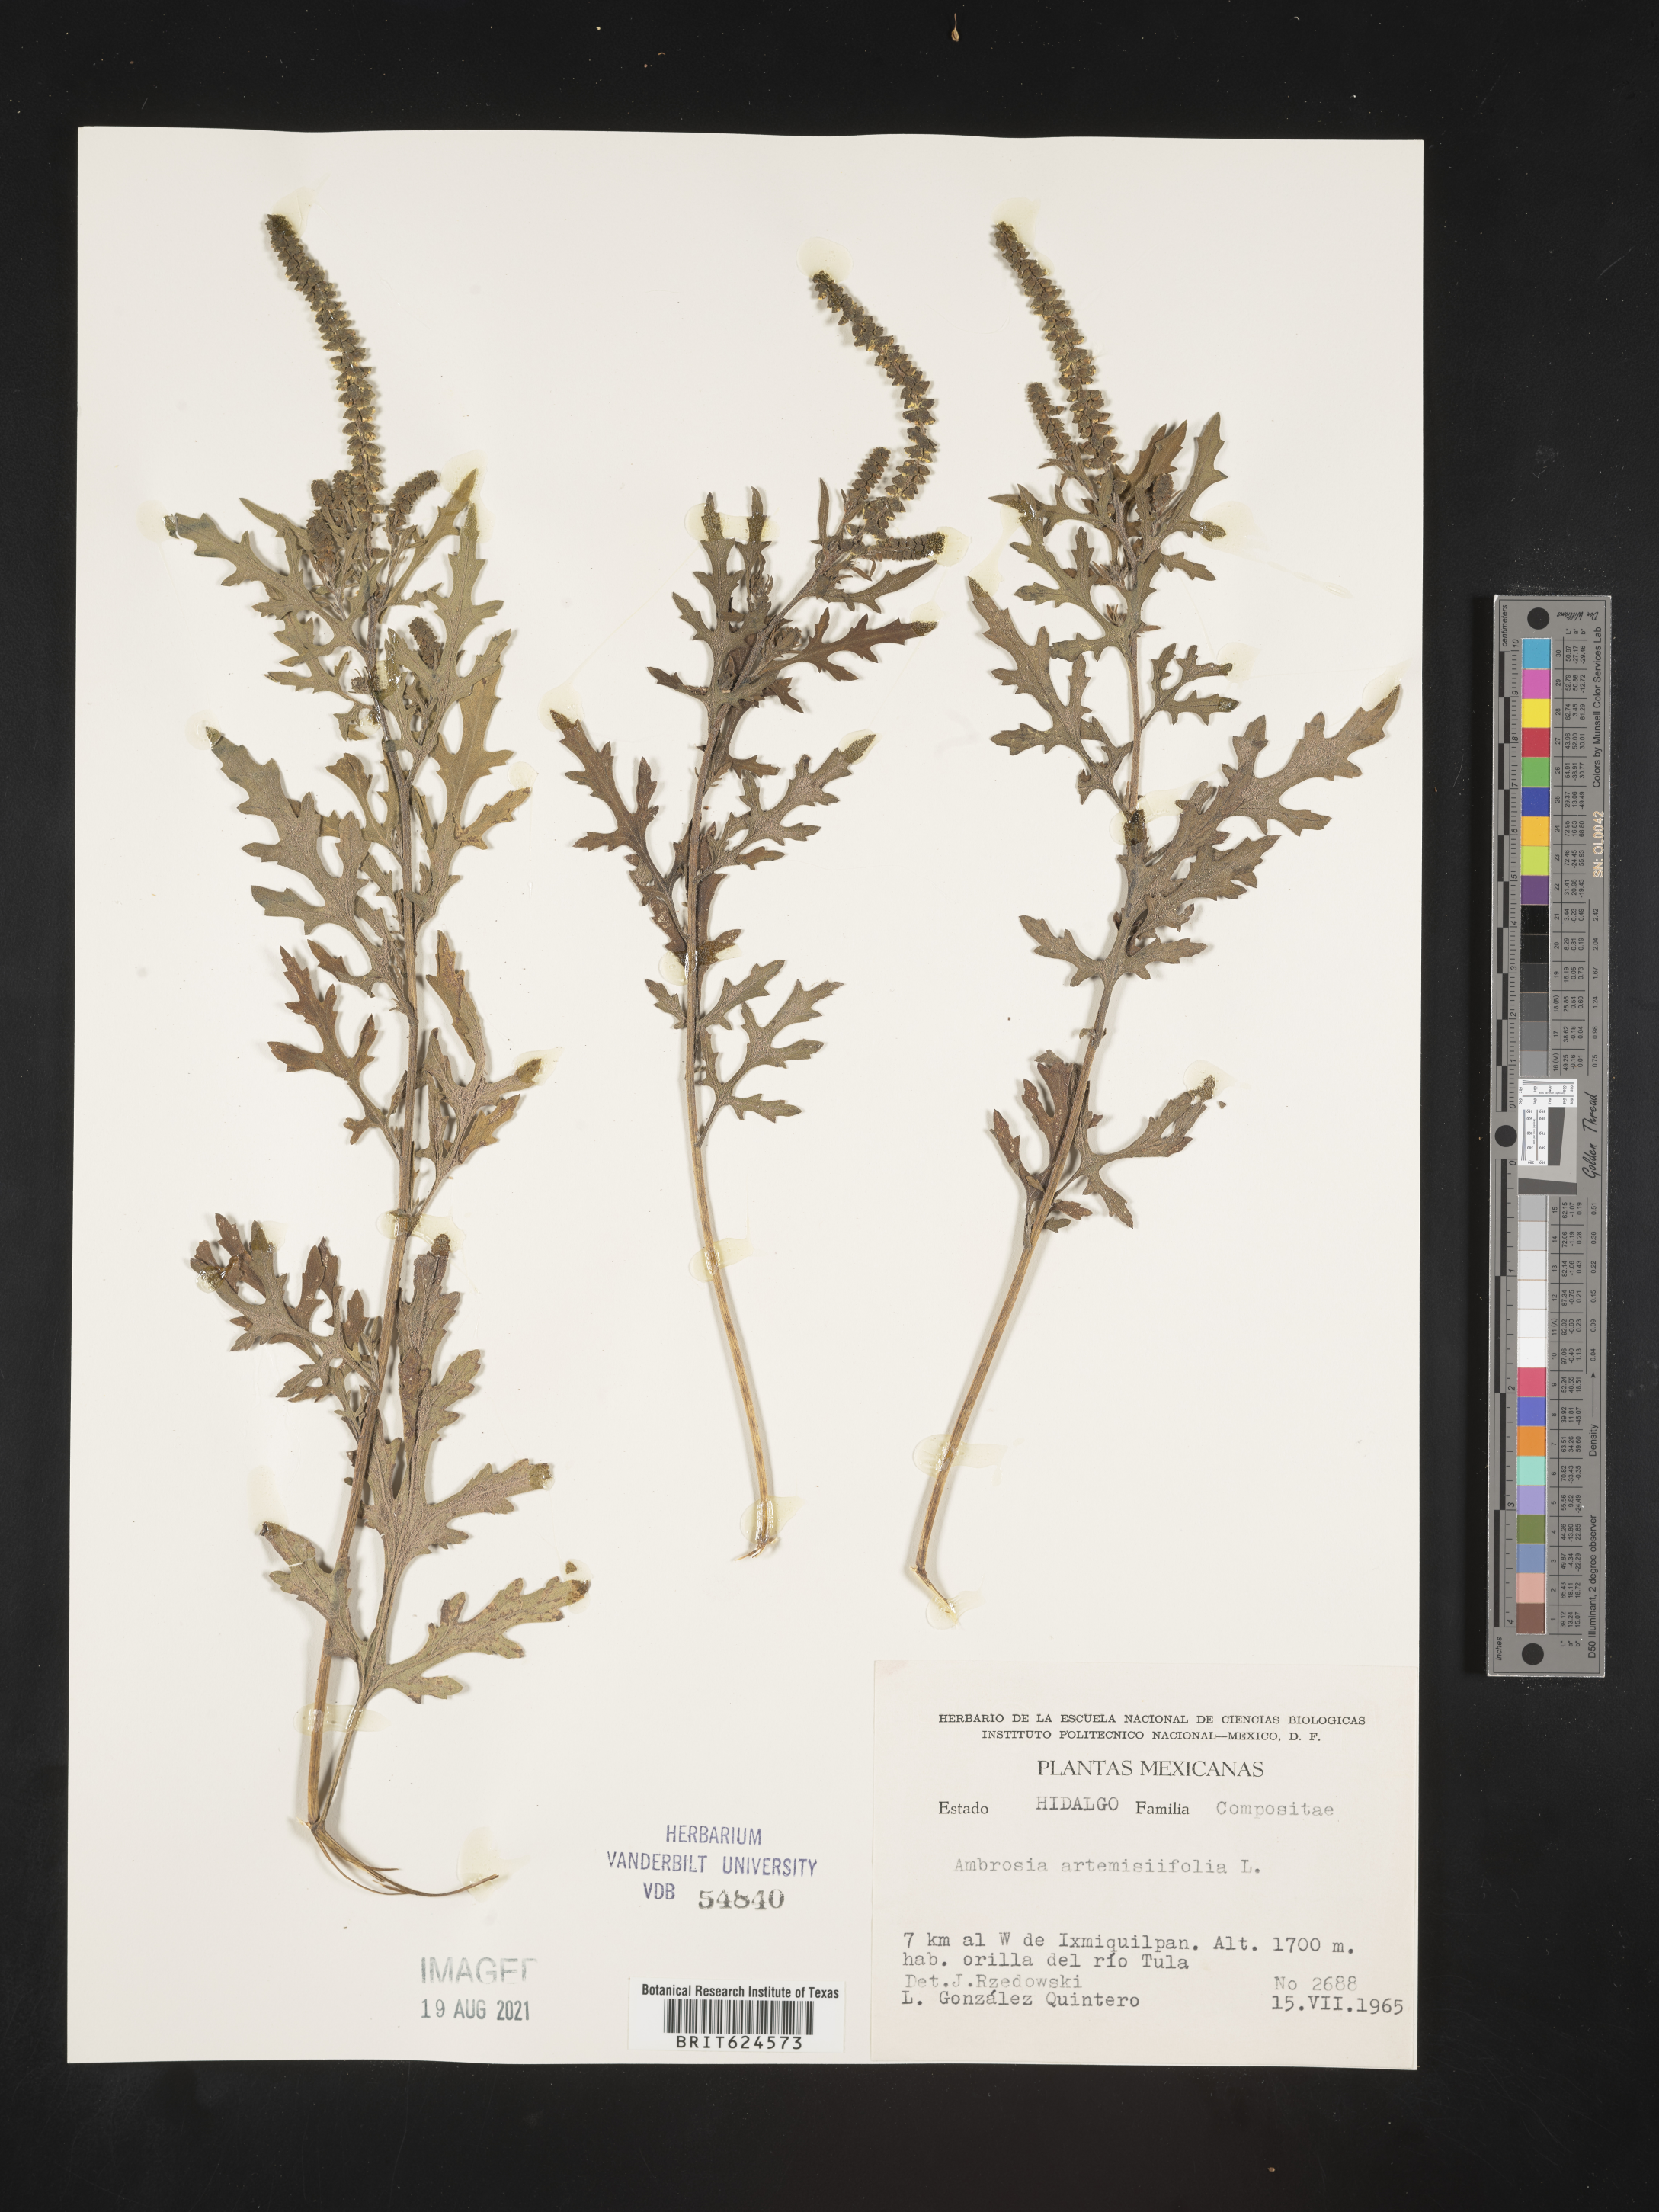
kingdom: Plantae
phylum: Tracheophyta
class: Magnoliopsida
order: Asterales
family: Asteraceae
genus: Ambrosia
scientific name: Ambrosia
